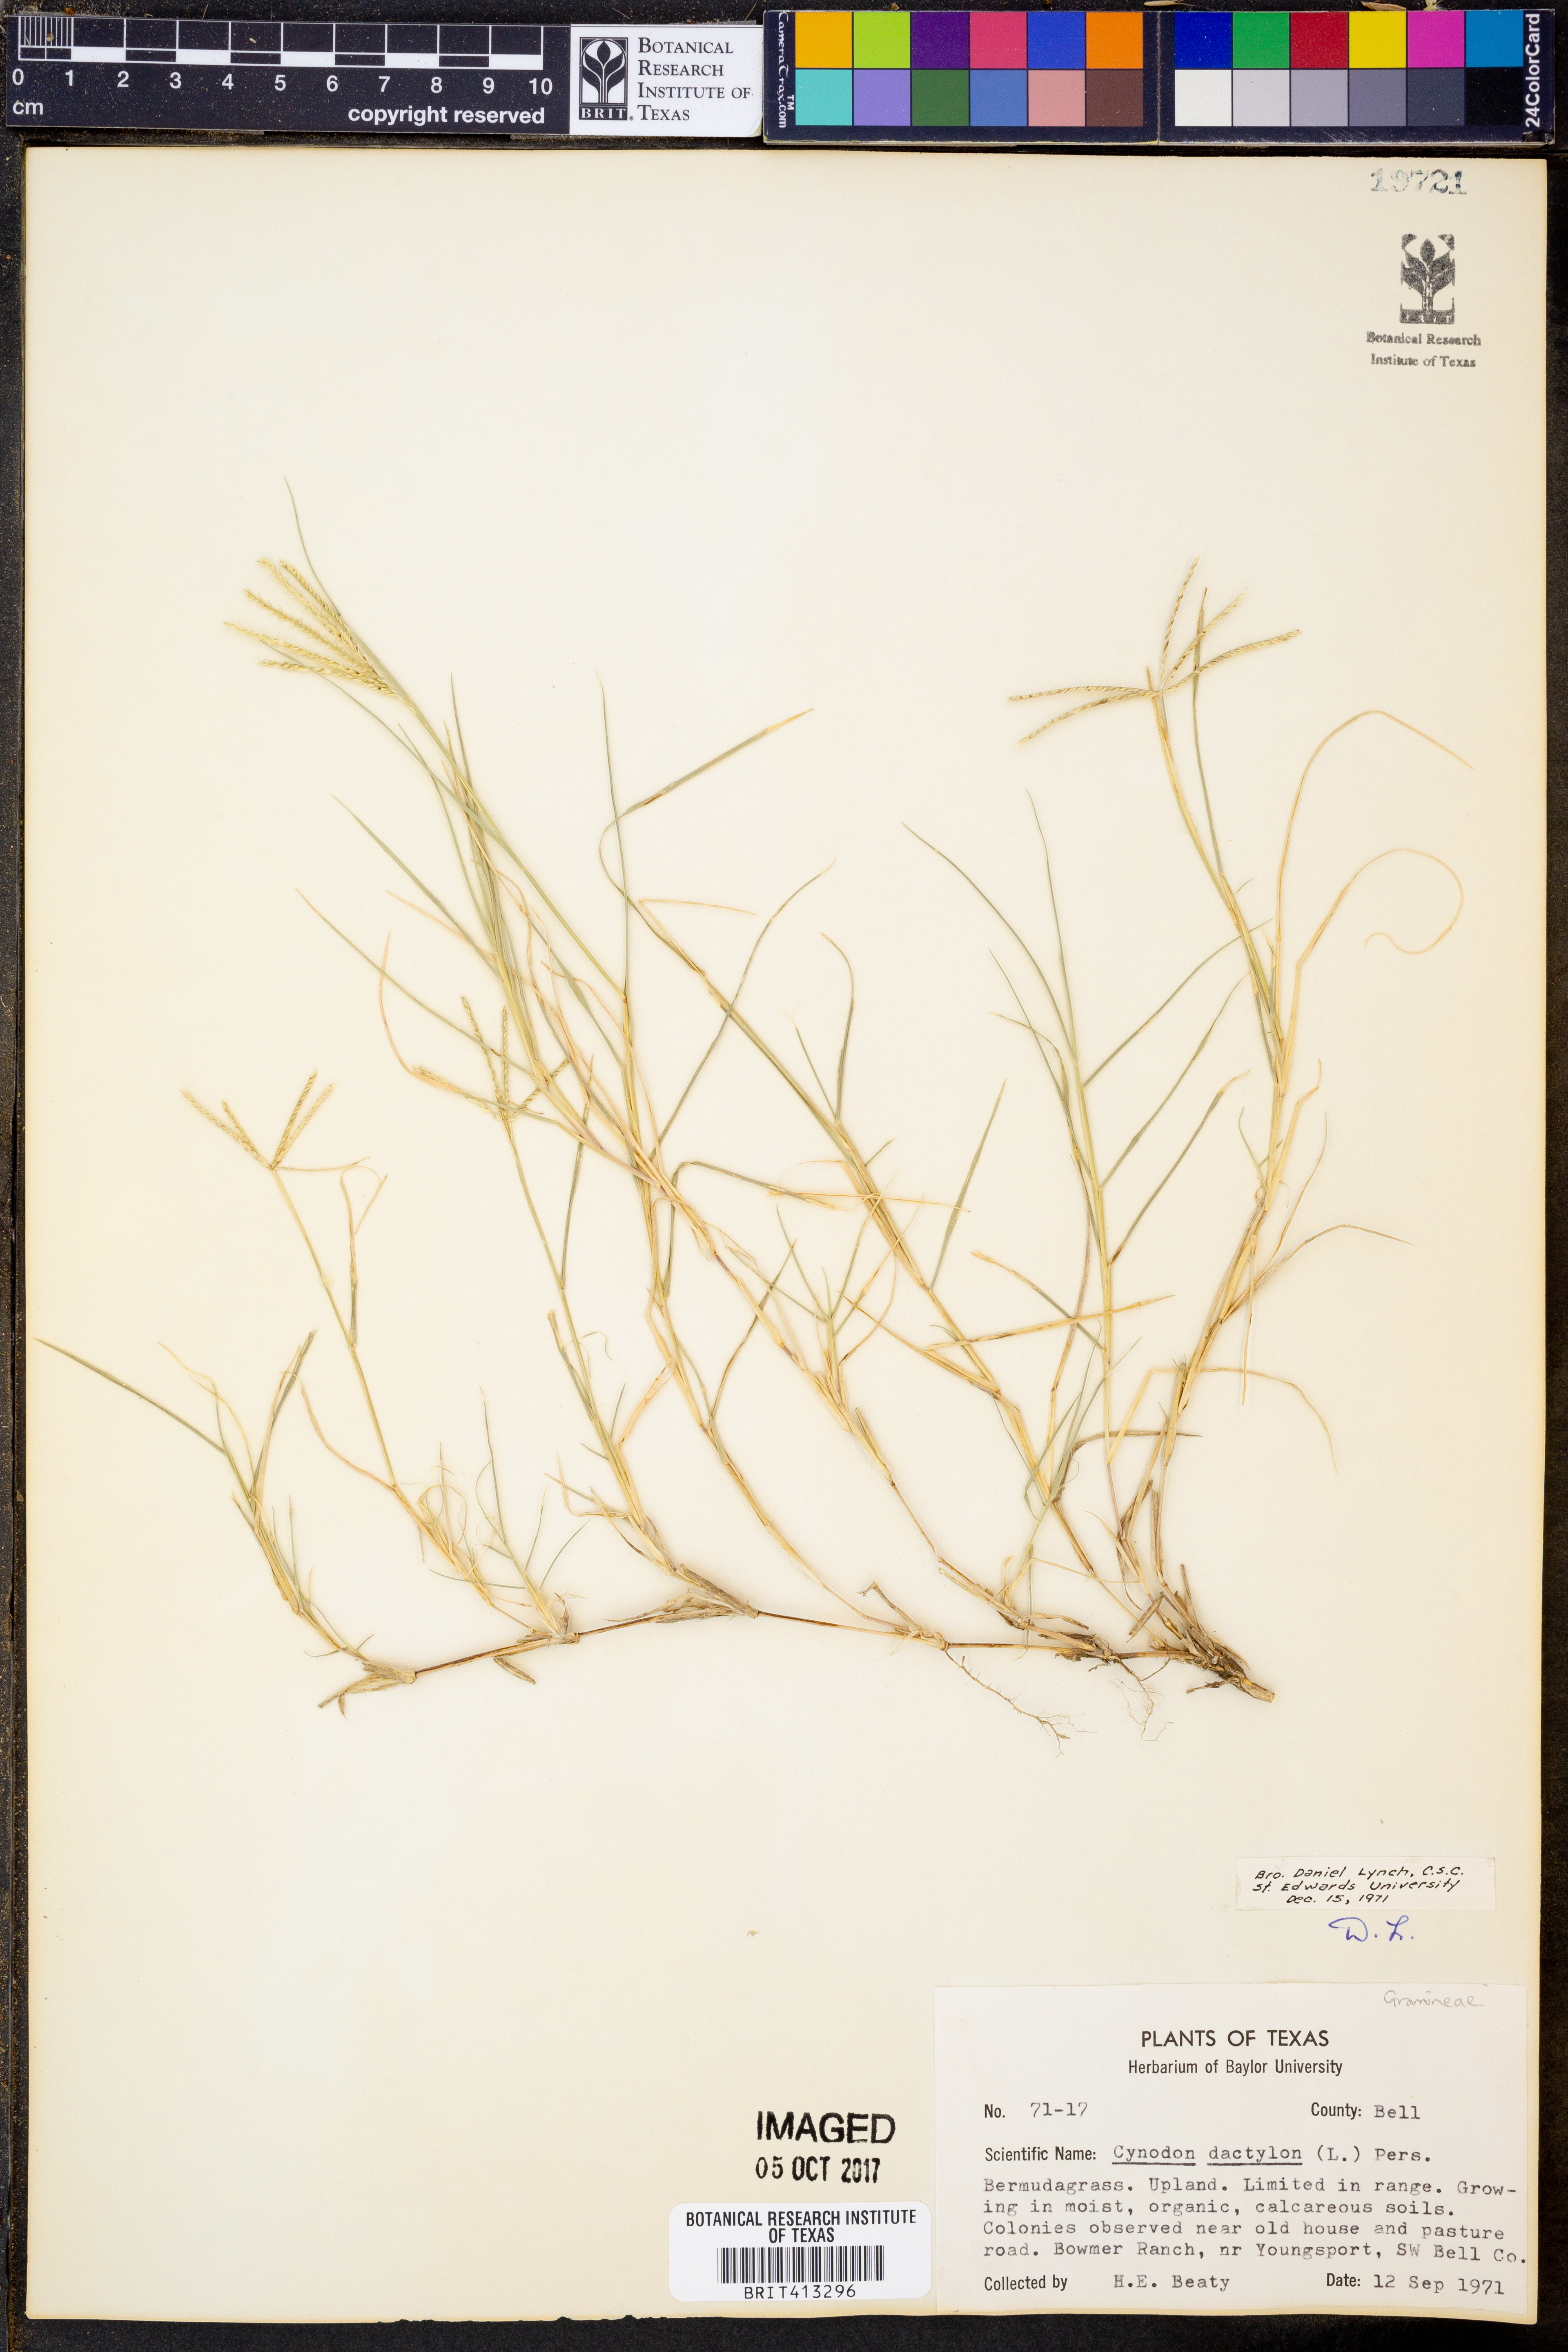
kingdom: Plantae
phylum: Tracheophyta
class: Liliopsida
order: Poales
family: Poaceae
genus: Cynodon
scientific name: Cynodon dactylon
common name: Bermuda grass
